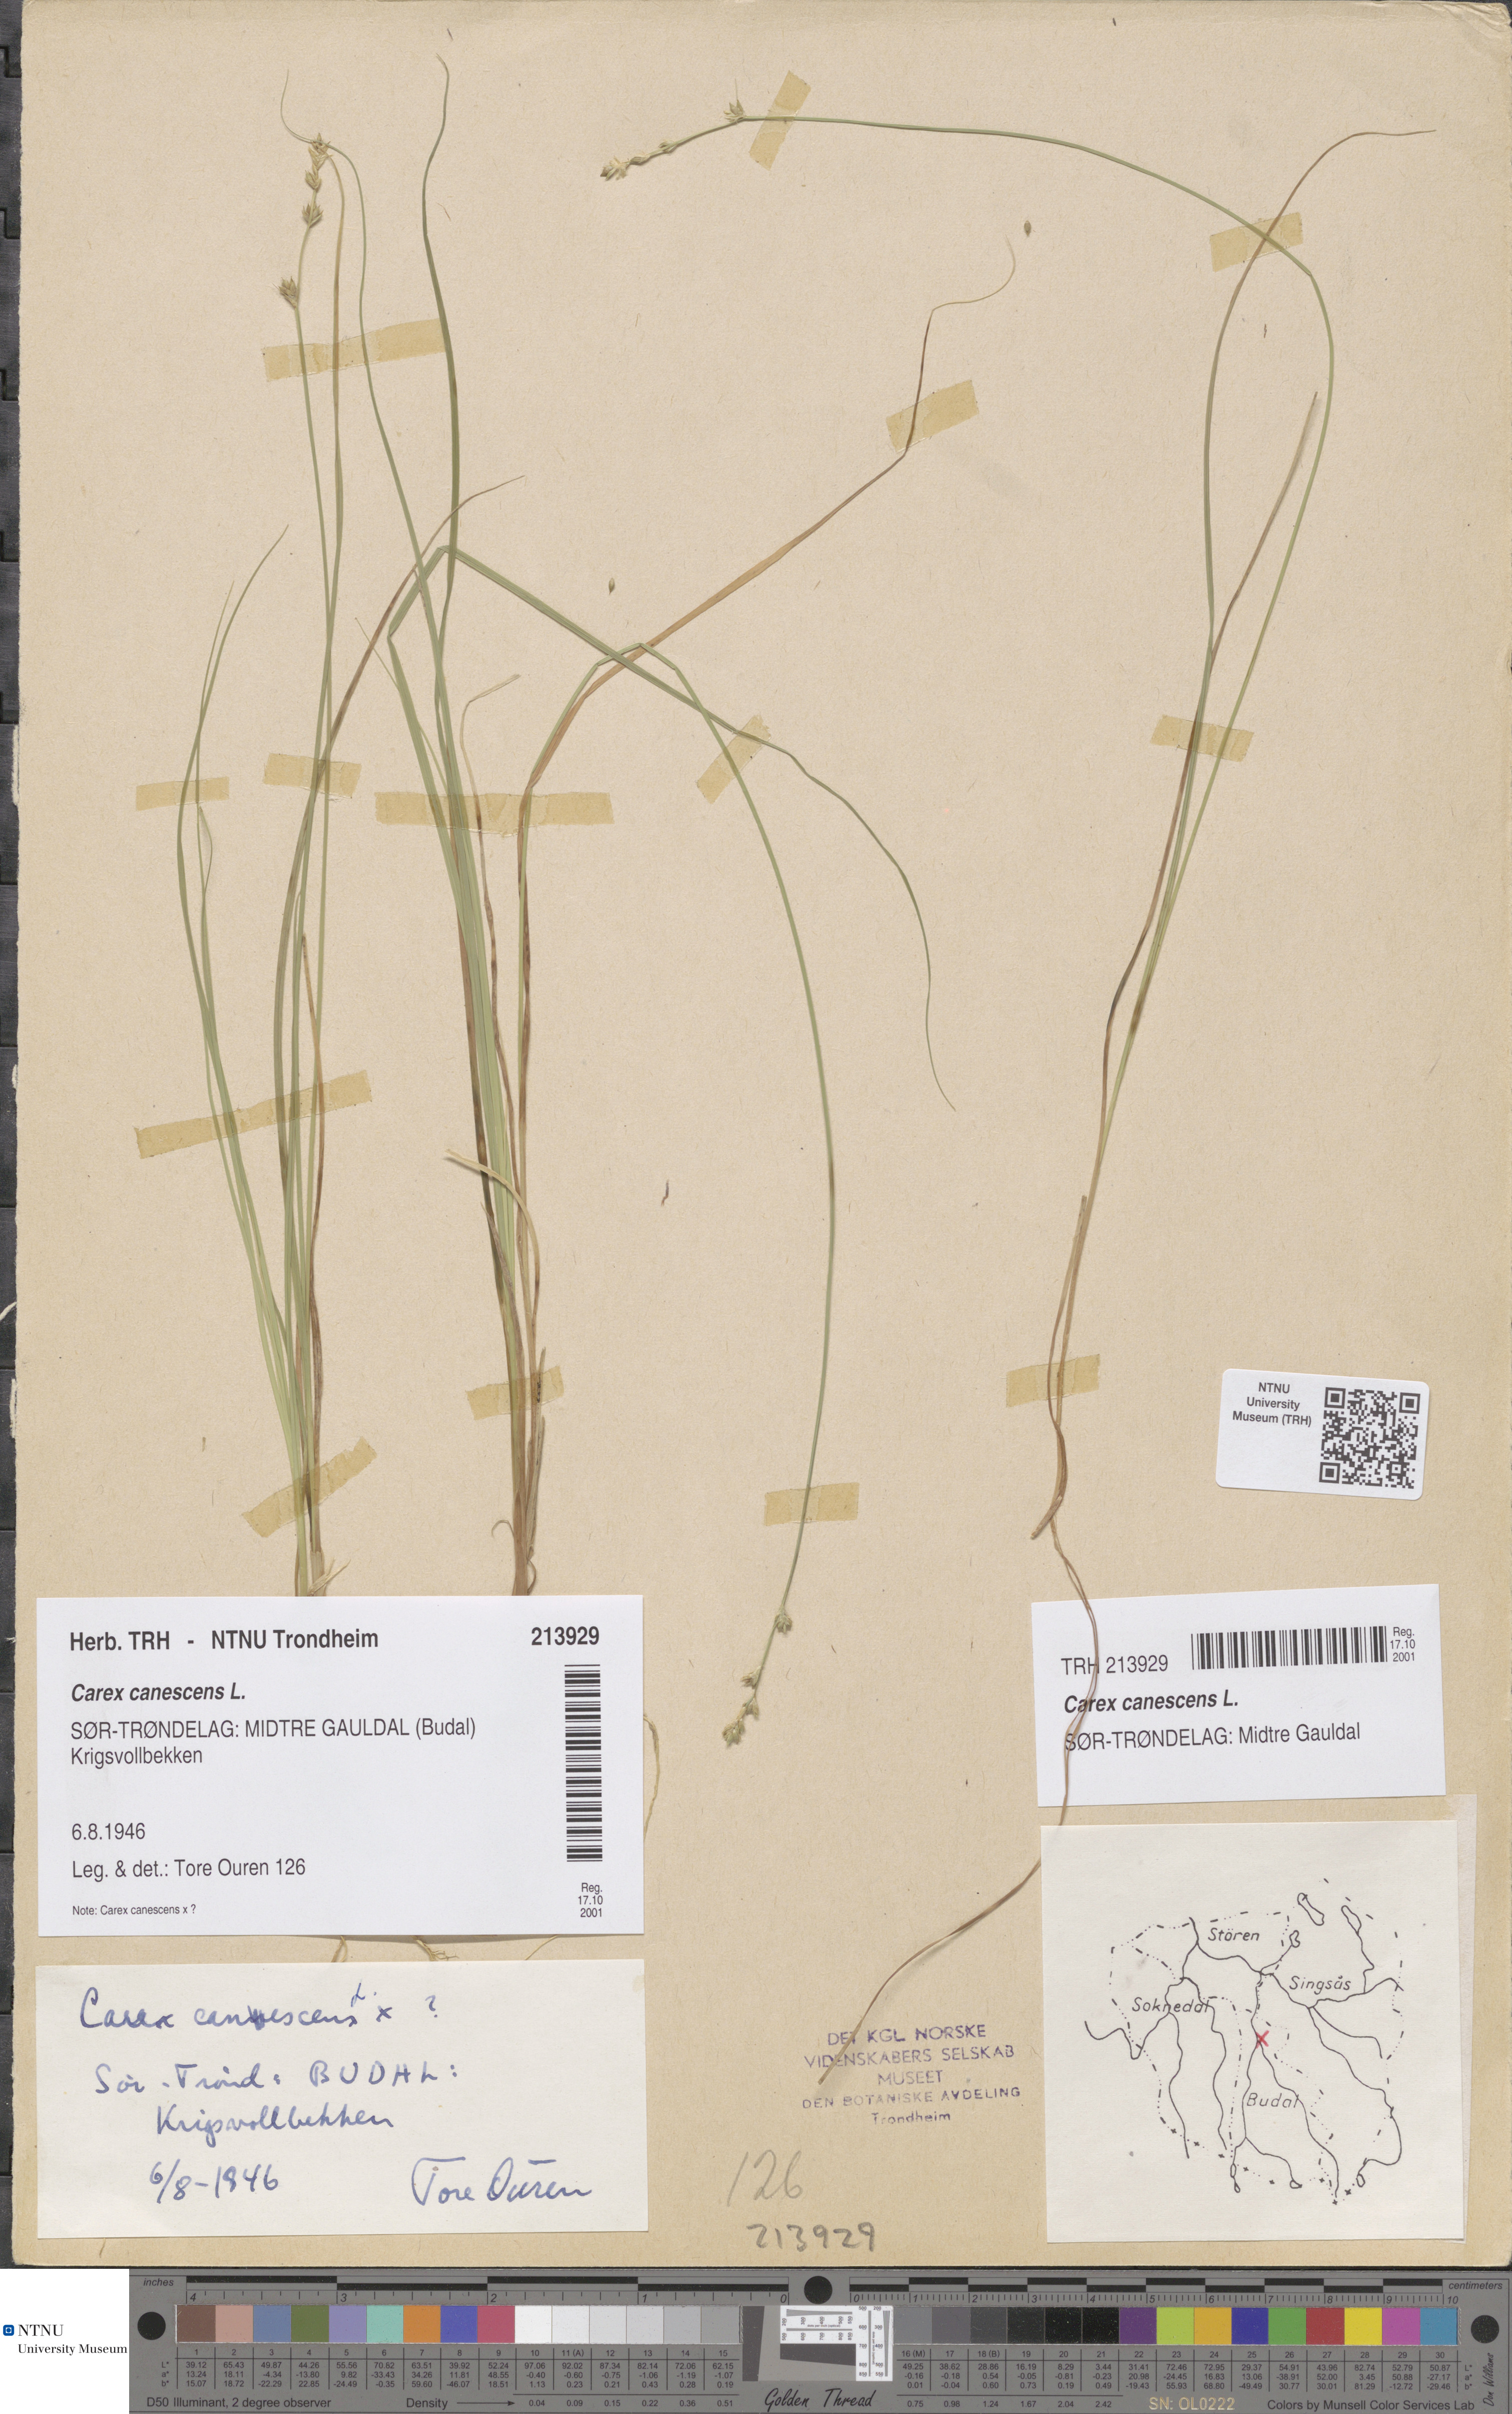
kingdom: Plantae
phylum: Tracheophyta
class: Liliopsida
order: Poales
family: Cyperaceae
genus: Carex
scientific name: Carex canescens
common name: White sedge
